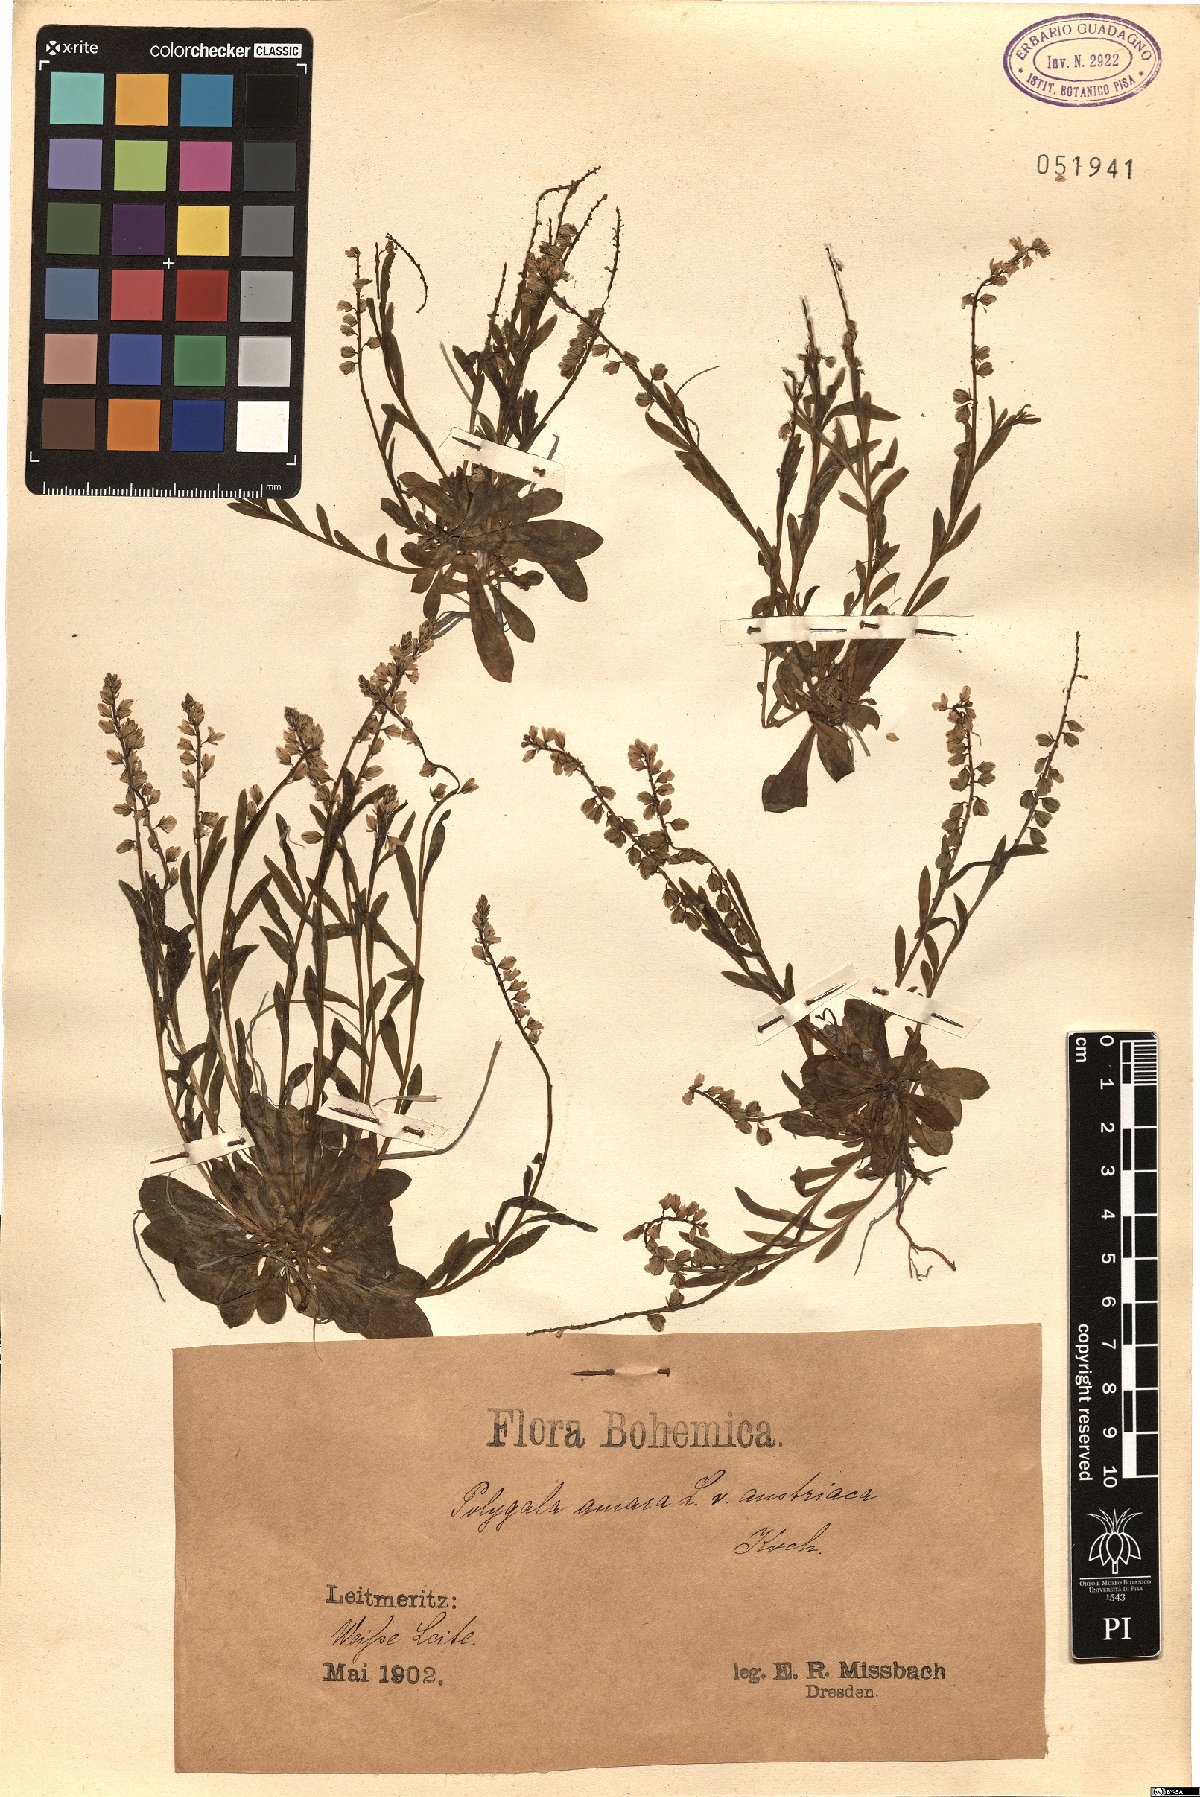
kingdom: Plantae
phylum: Tracheophyta
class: Magnoliopsida
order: Fabales
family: Polygalaceae
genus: Polygala
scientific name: Polygala amarella
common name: Dwarf milkwort
